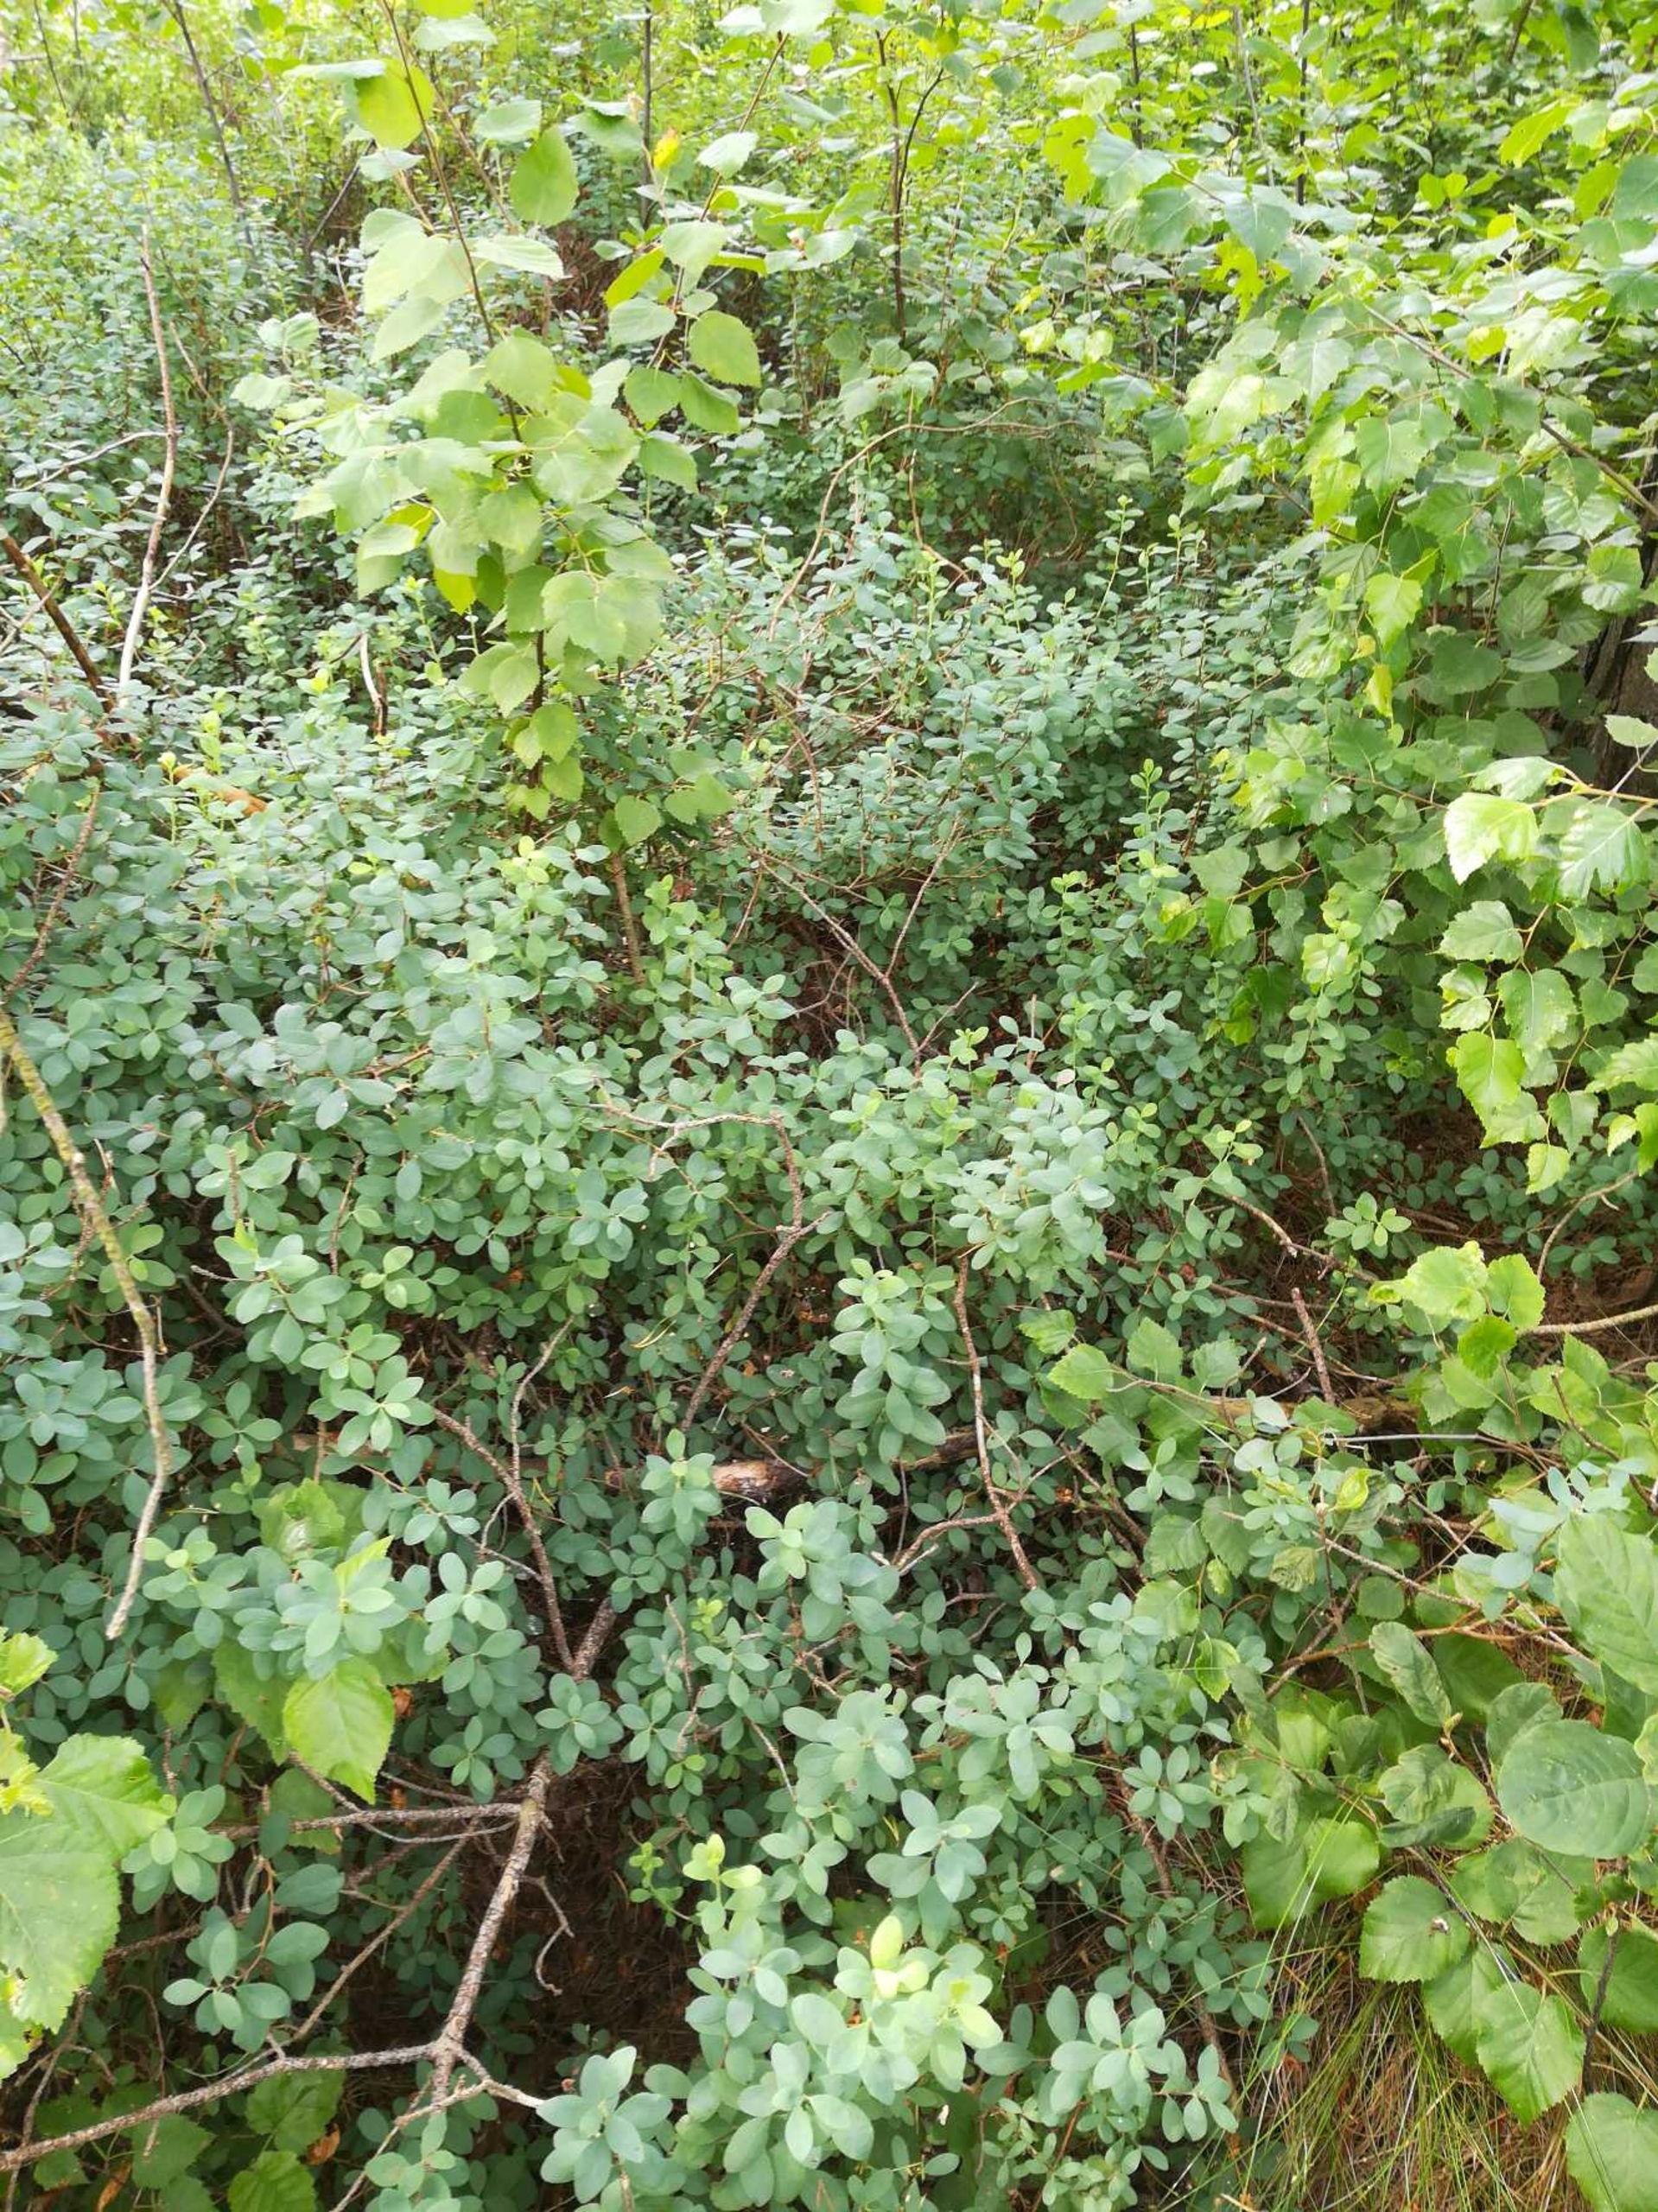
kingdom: Plantae
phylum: Tracheophyta
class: Magnoliopsida
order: Ericales
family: Ericaceae
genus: Vaccinium
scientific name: Vaccinium uliginosum
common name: Mose-bølle
